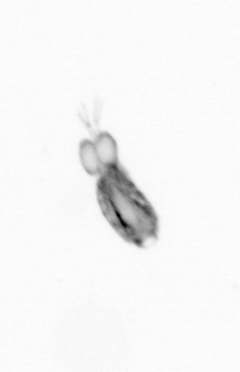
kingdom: Animalia
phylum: Arthropoda
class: Copepoda
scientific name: Copepoda
